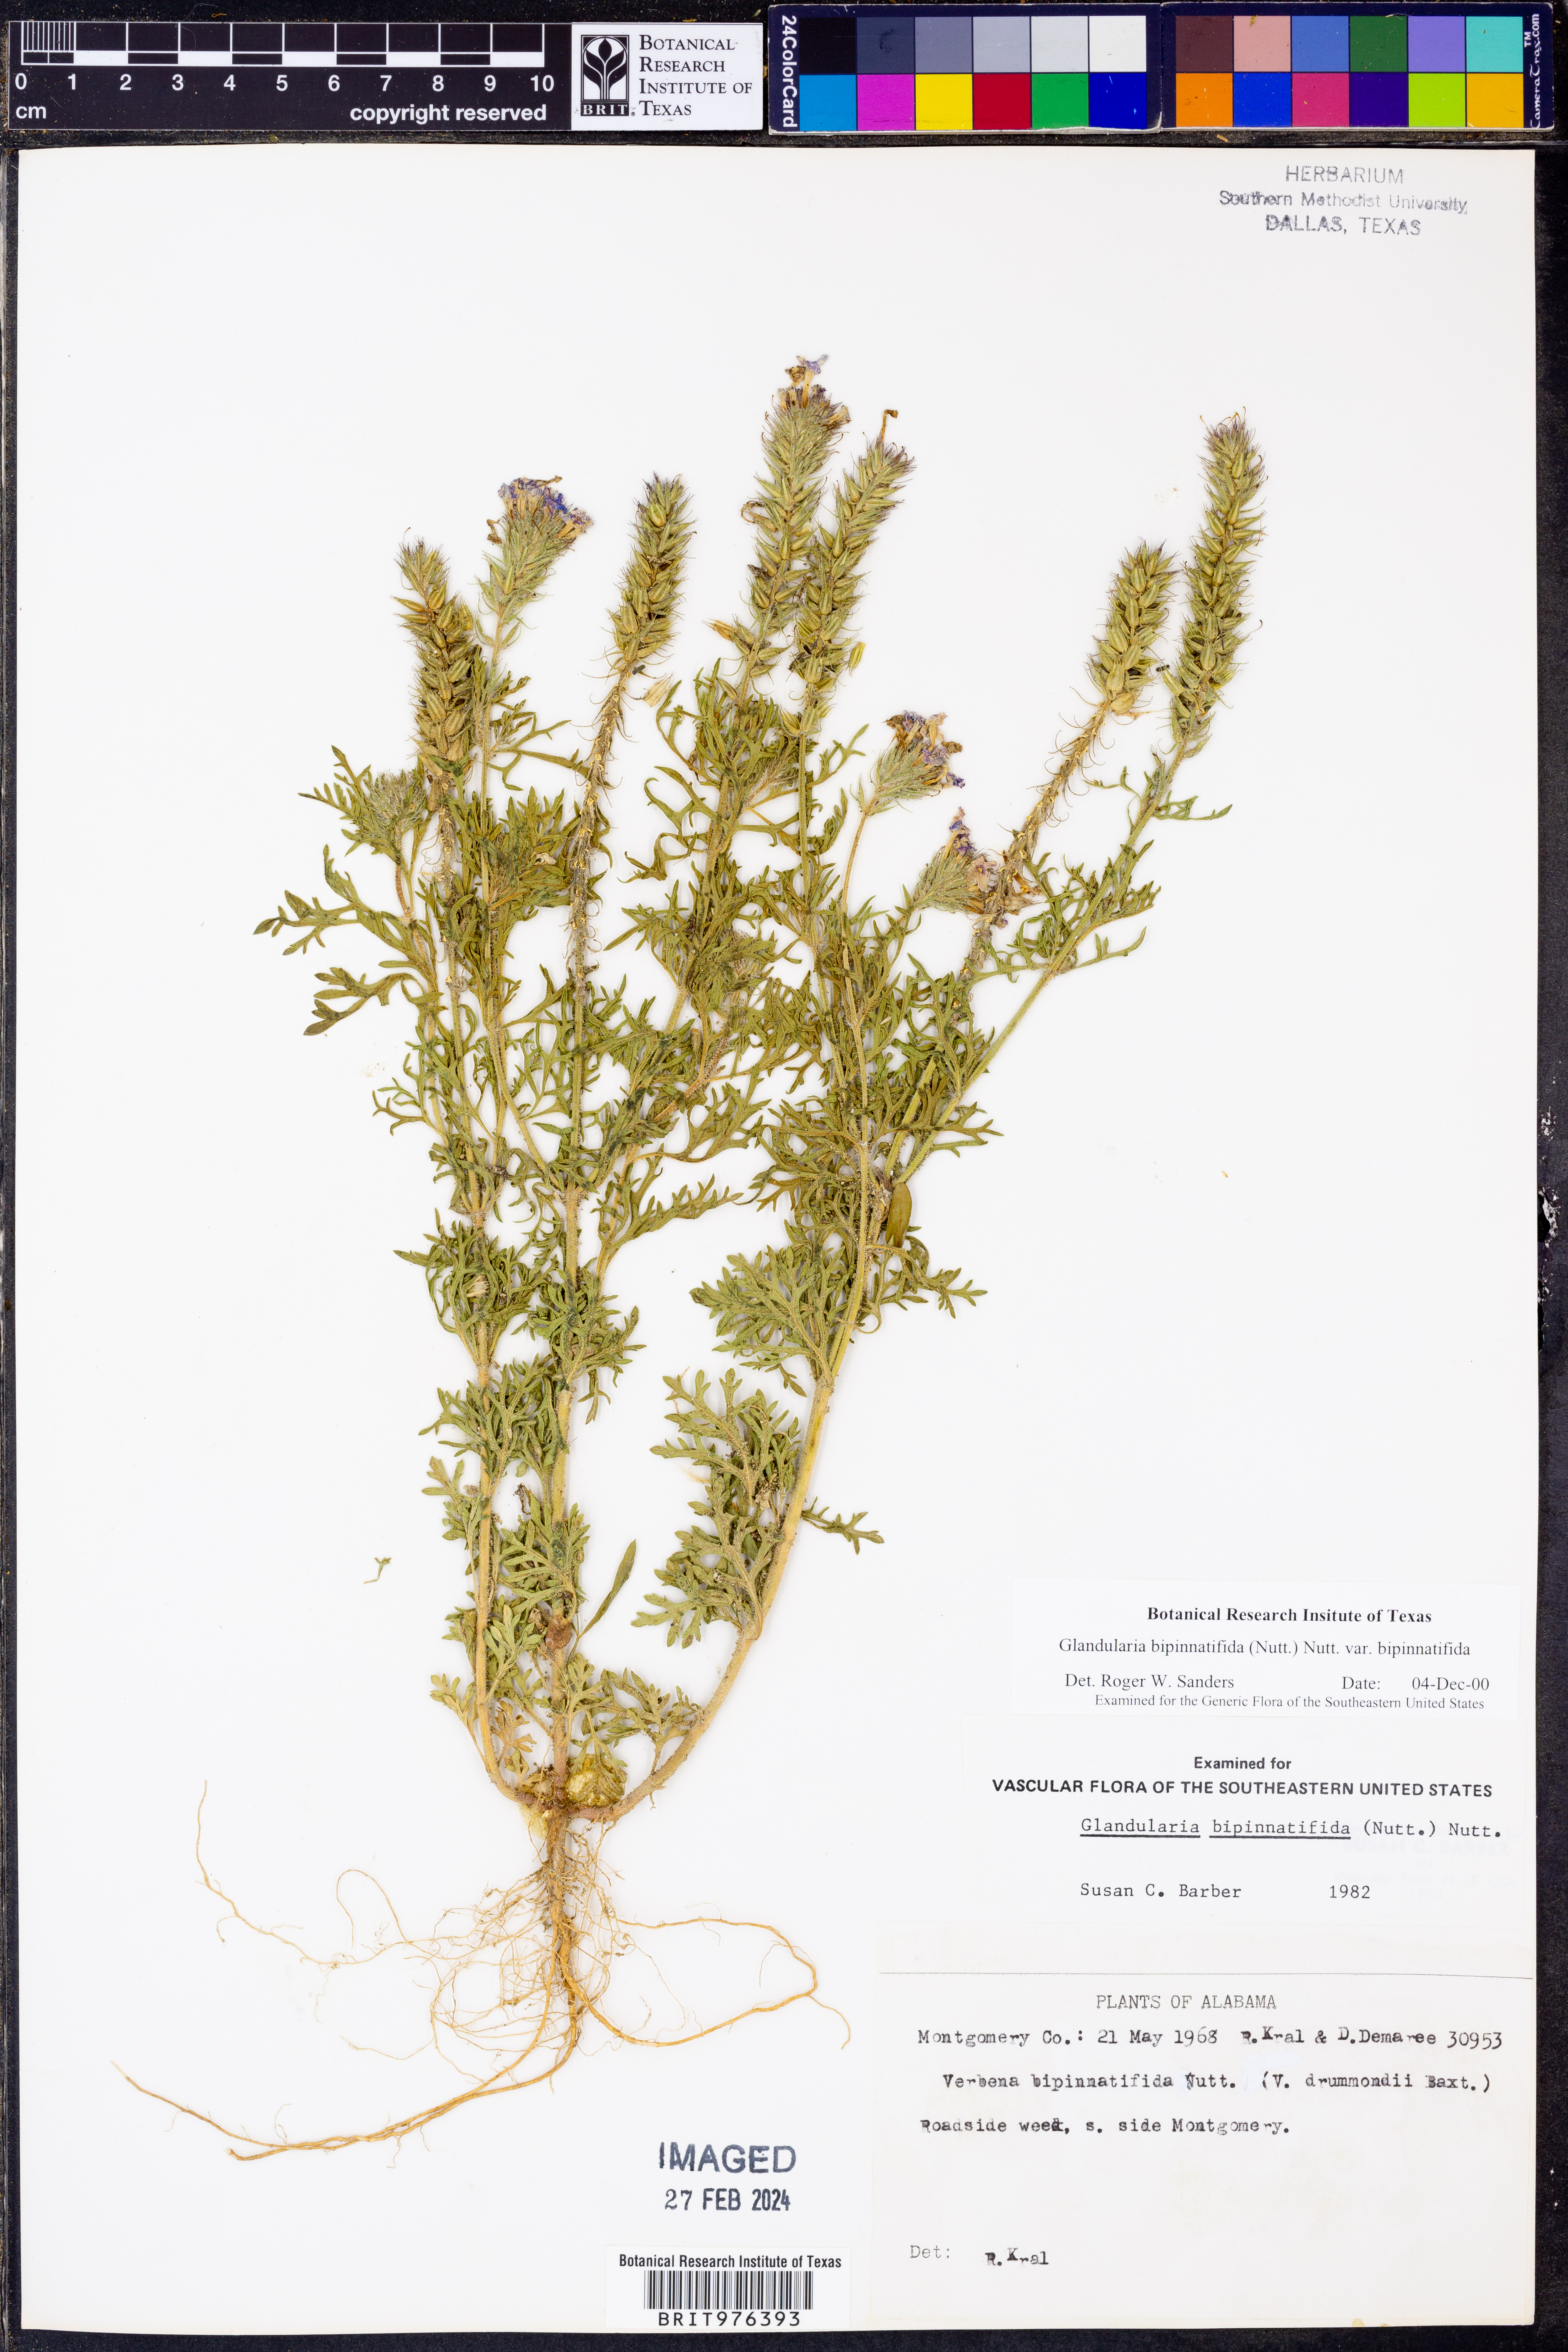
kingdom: Plantae
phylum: Tracheophyta
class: Magnoliopsida
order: Lamiales
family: Verbenaceae
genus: Verbena
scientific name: Verbena bipinnatifida
